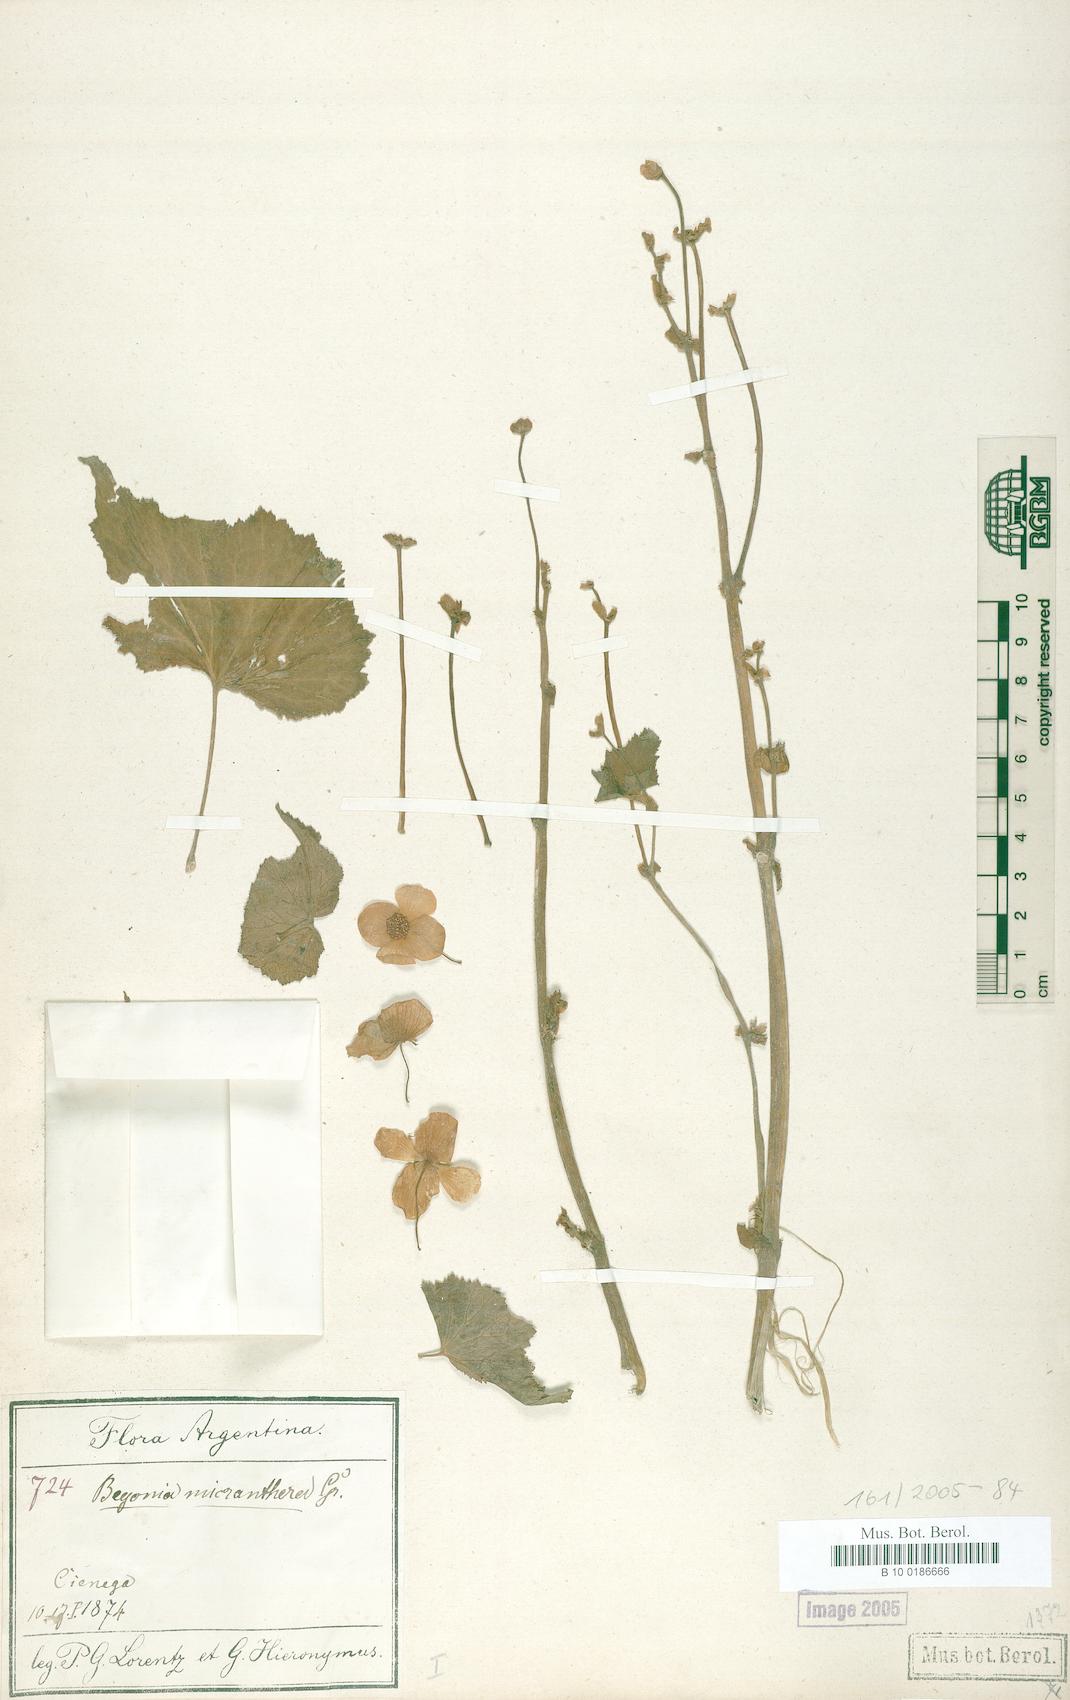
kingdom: Plantae
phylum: Tracheophyta
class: Magnoliopsida
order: Cucurbitales
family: Begoniaceae
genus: Begonia
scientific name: Begonia micranthera
